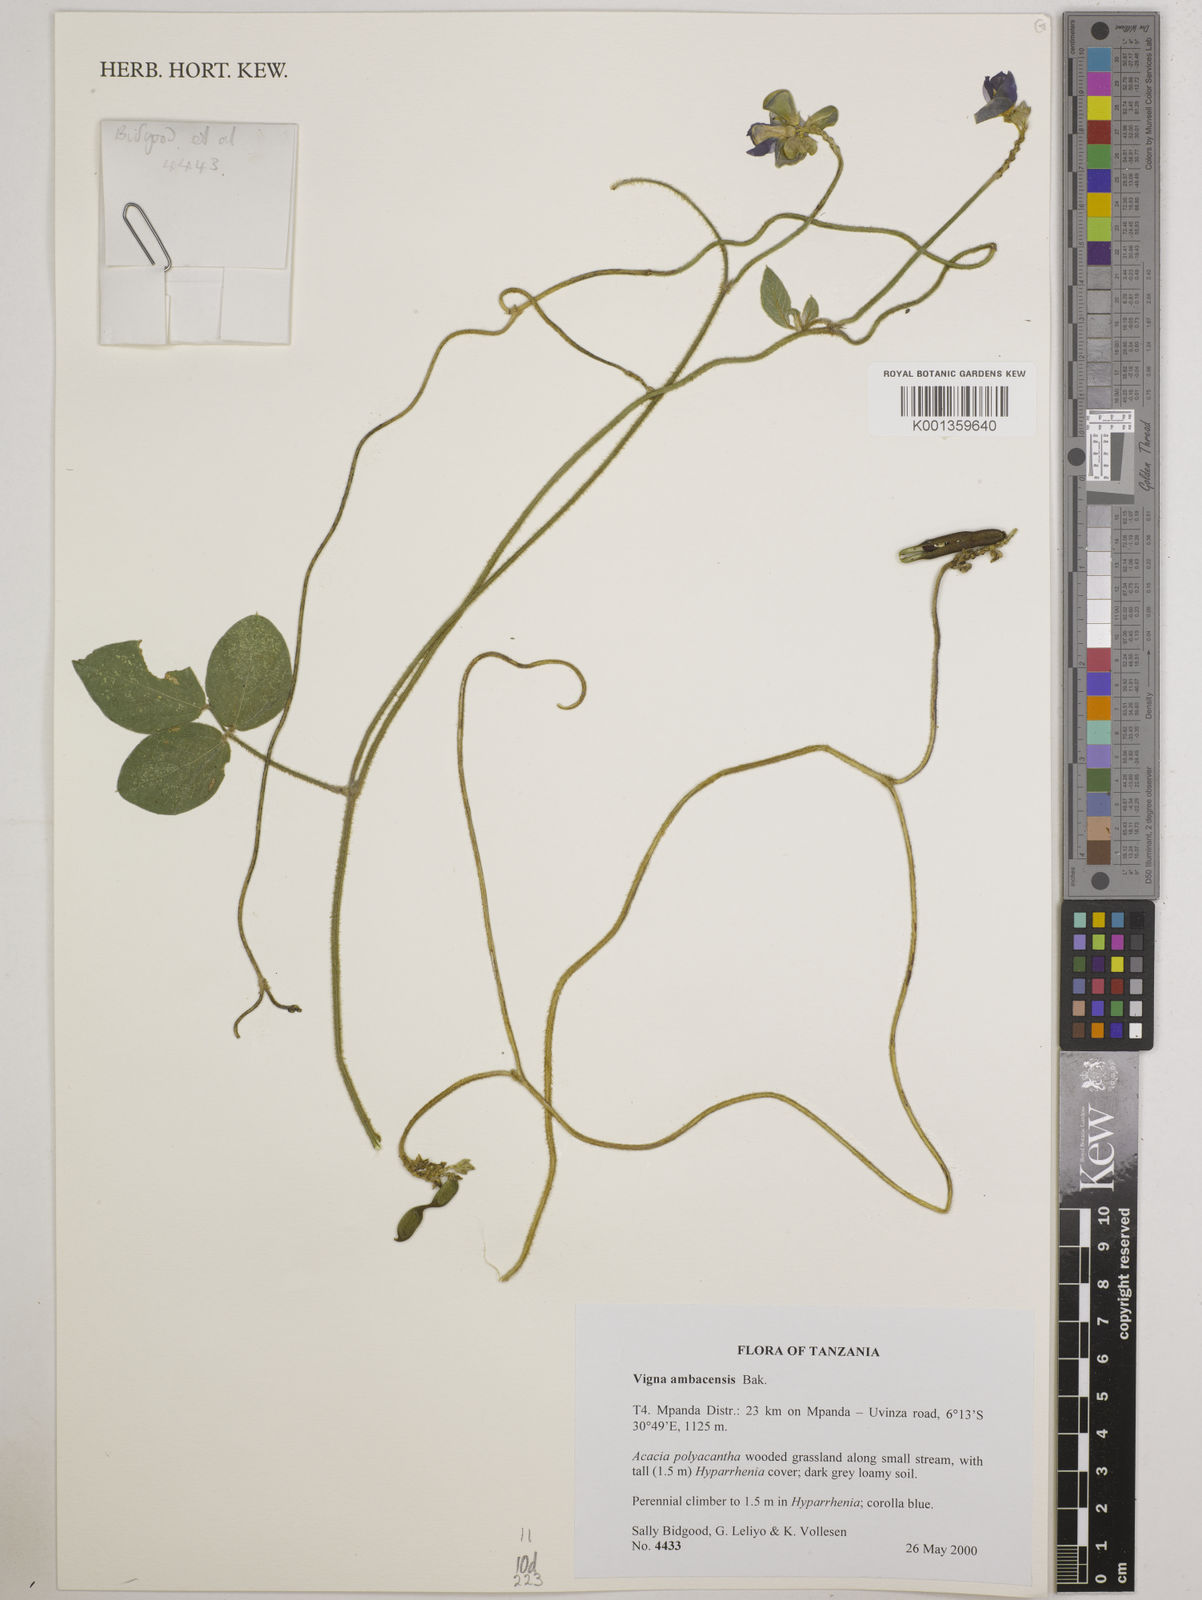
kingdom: Plantae
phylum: Tracheophyta
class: Magnoliopsida
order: Fabales
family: Fabaceae
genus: Vigna
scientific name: Vigna ambacensis
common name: Tsarkiyan zomo
